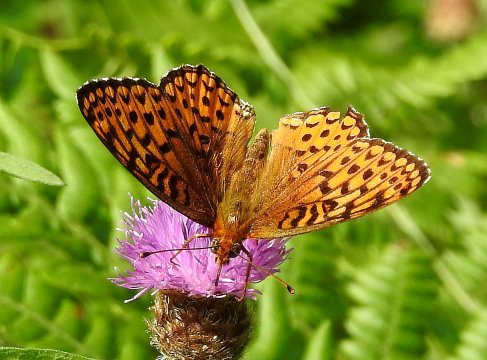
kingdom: Animalia
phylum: Arthropoda
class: Insecta
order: Lepidoptera
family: Nymphalidae
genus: Speyeria
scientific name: Speyeria atlantis
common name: Atlantis Fritillary
